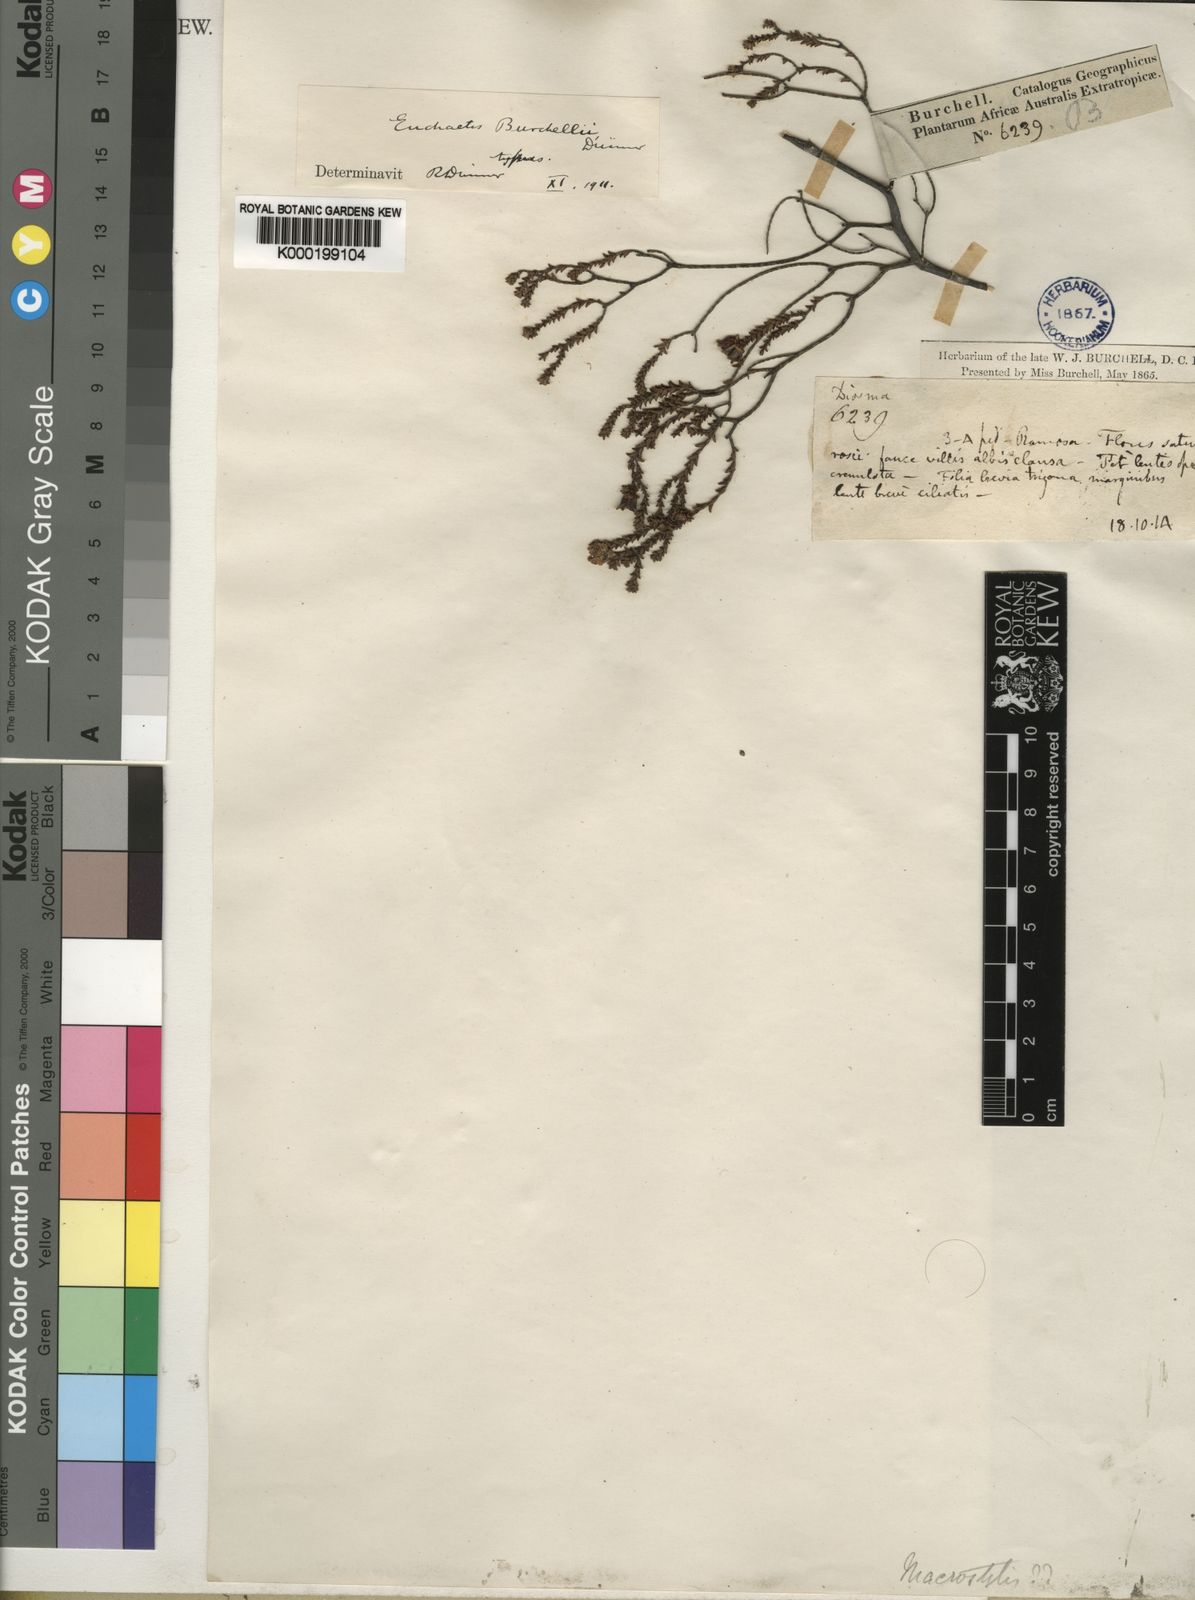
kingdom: Plantae
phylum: Tracheophyta
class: Magnoliopsida
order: Sapindales
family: Rutaceae
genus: Euchaetis
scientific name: Euchaetis burchellii
